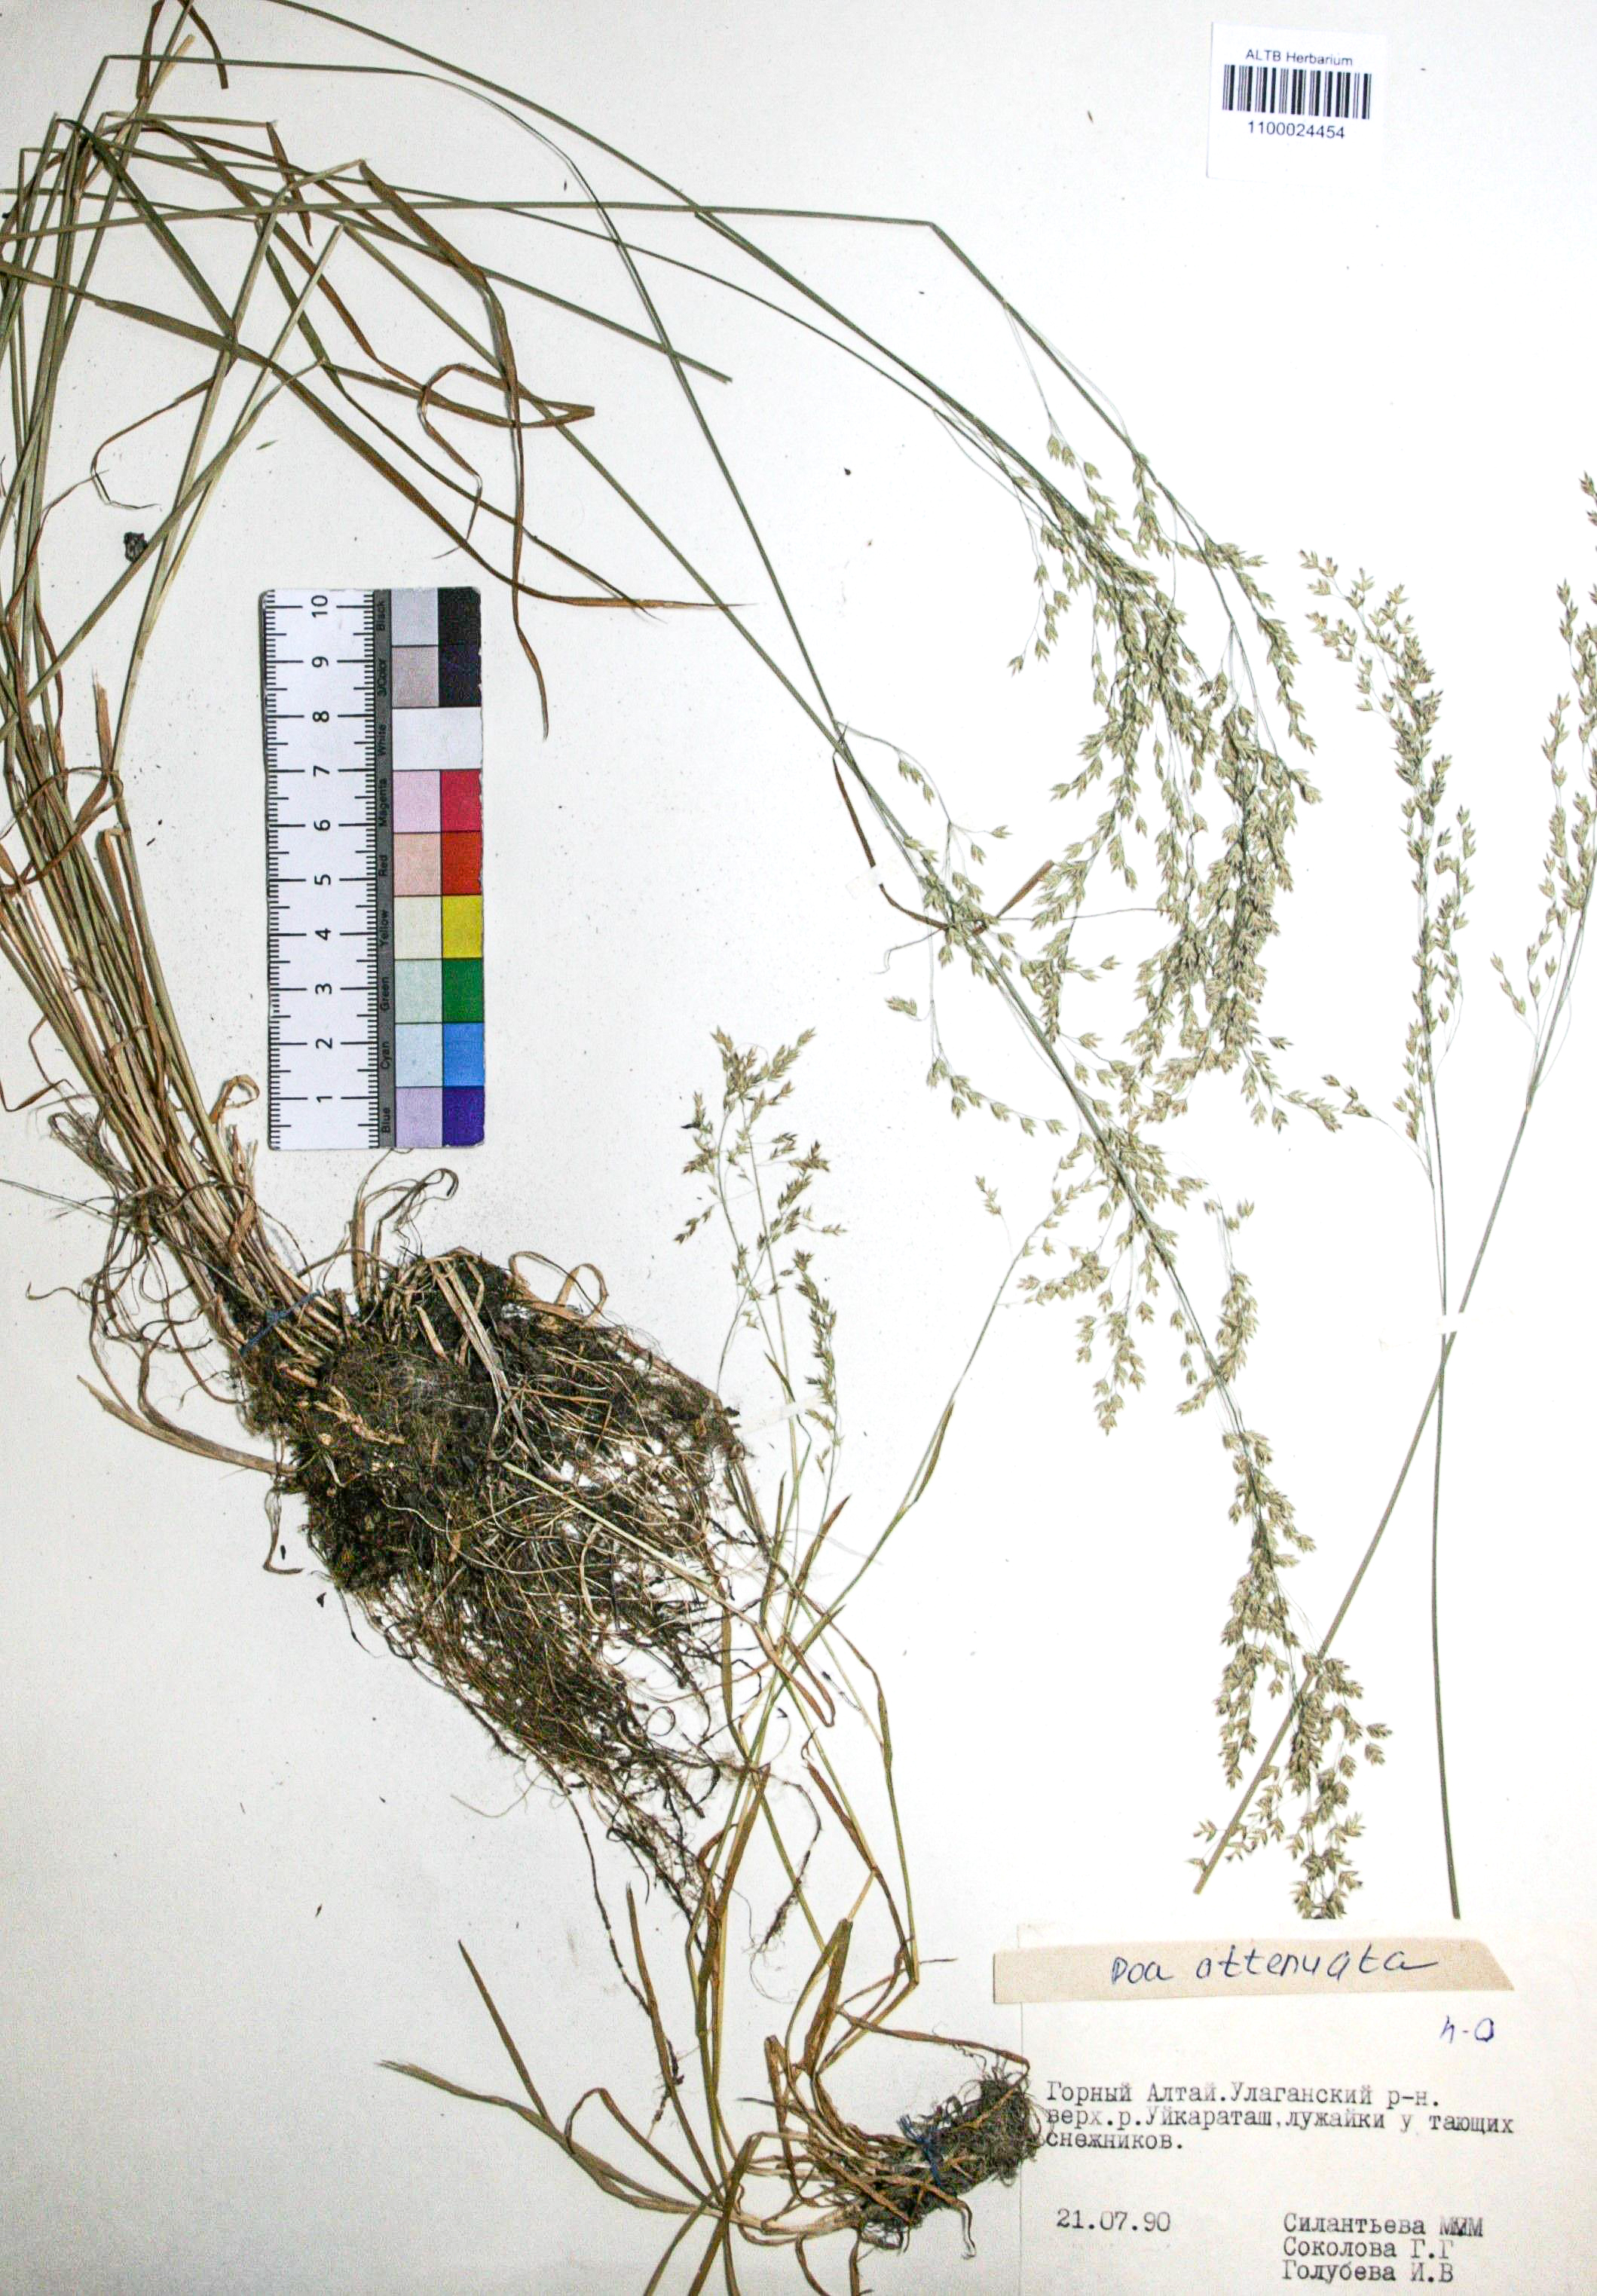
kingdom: Plantae
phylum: Tracheophyta
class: Liliopsida
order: Poales
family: Poaceae
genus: Poa
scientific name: Poa attenuata
